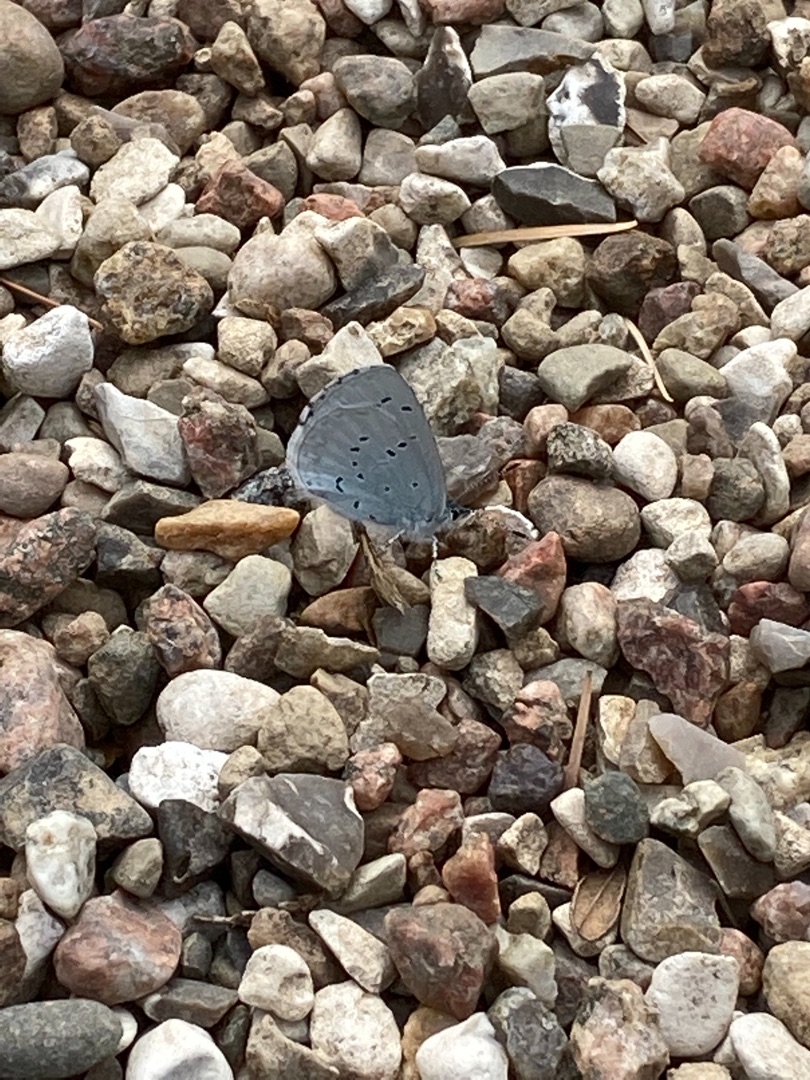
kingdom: Animalia
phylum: Arthropoda
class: Insecta
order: Lepidoptera
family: Lycaenidae
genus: Celastrina
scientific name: Celastrina argiolus
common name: Skovblåfugl
